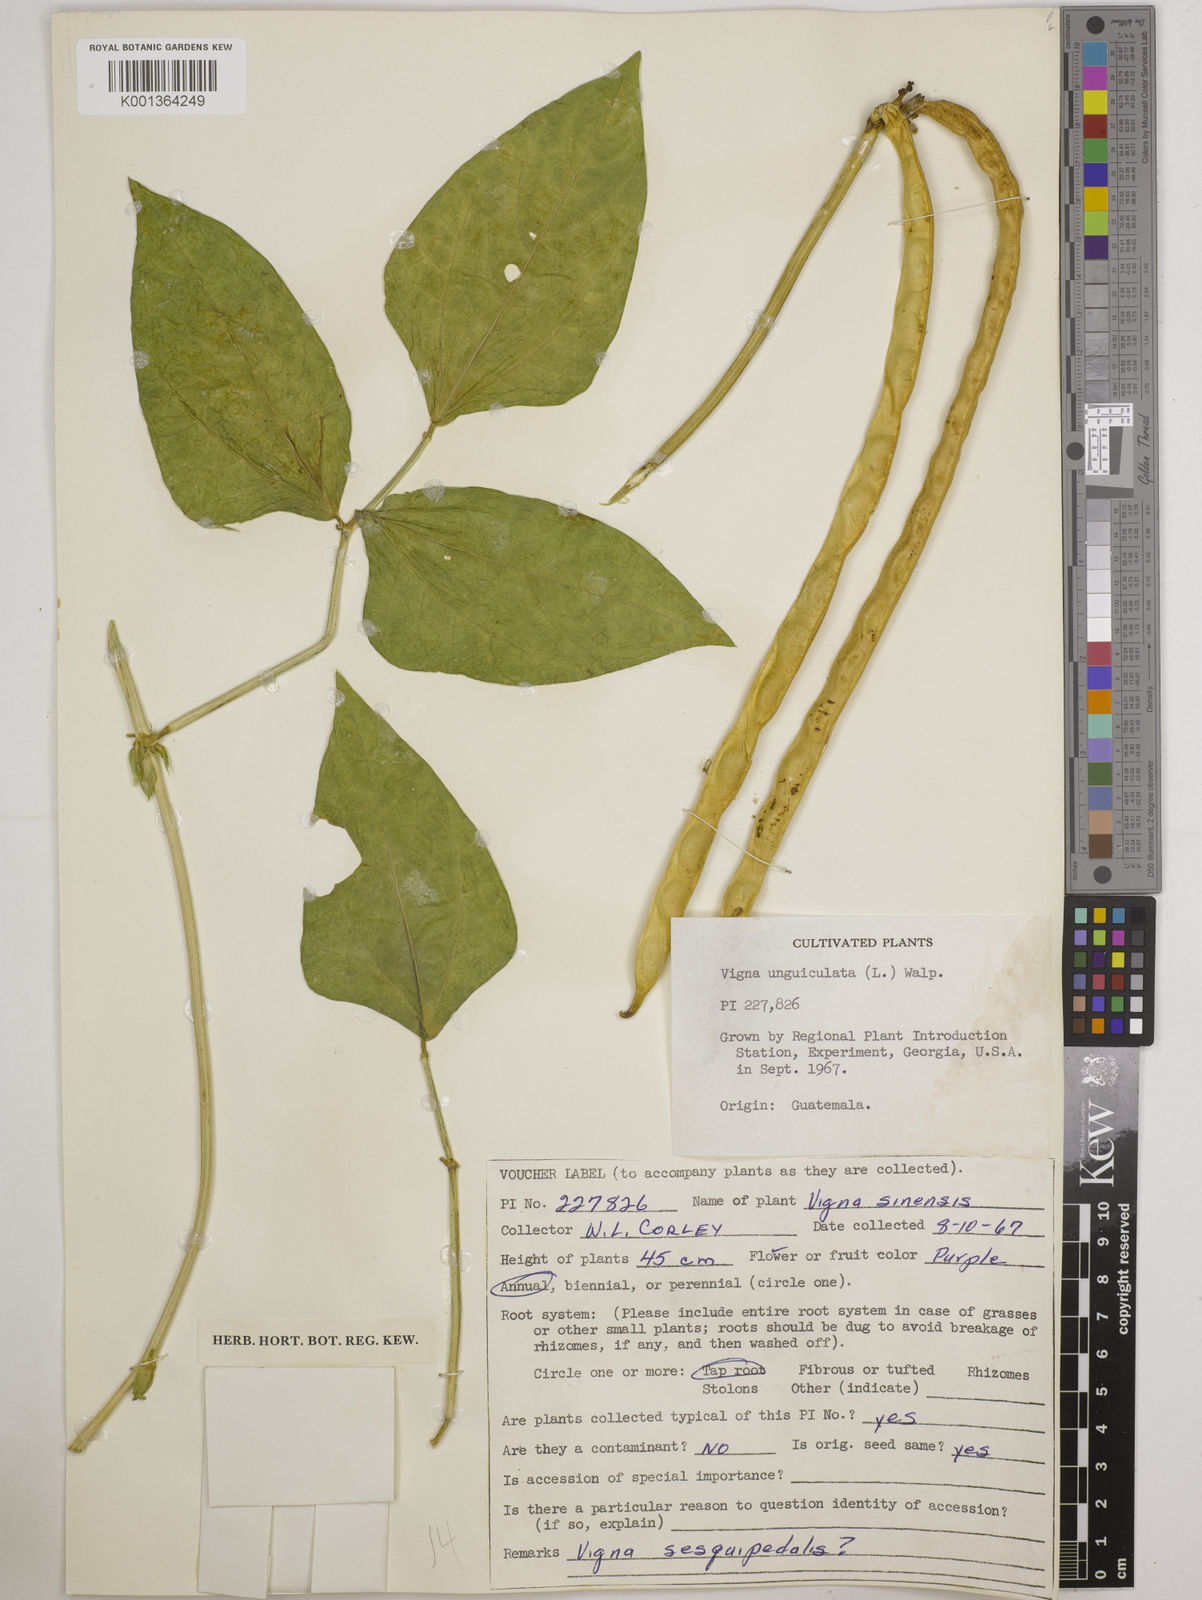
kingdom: Plantae
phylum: Tracheophyta
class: Magnoliopsida
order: Fabales
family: Fabaceae
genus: Vigna
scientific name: Vigna unguiculata
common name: Cowpea
